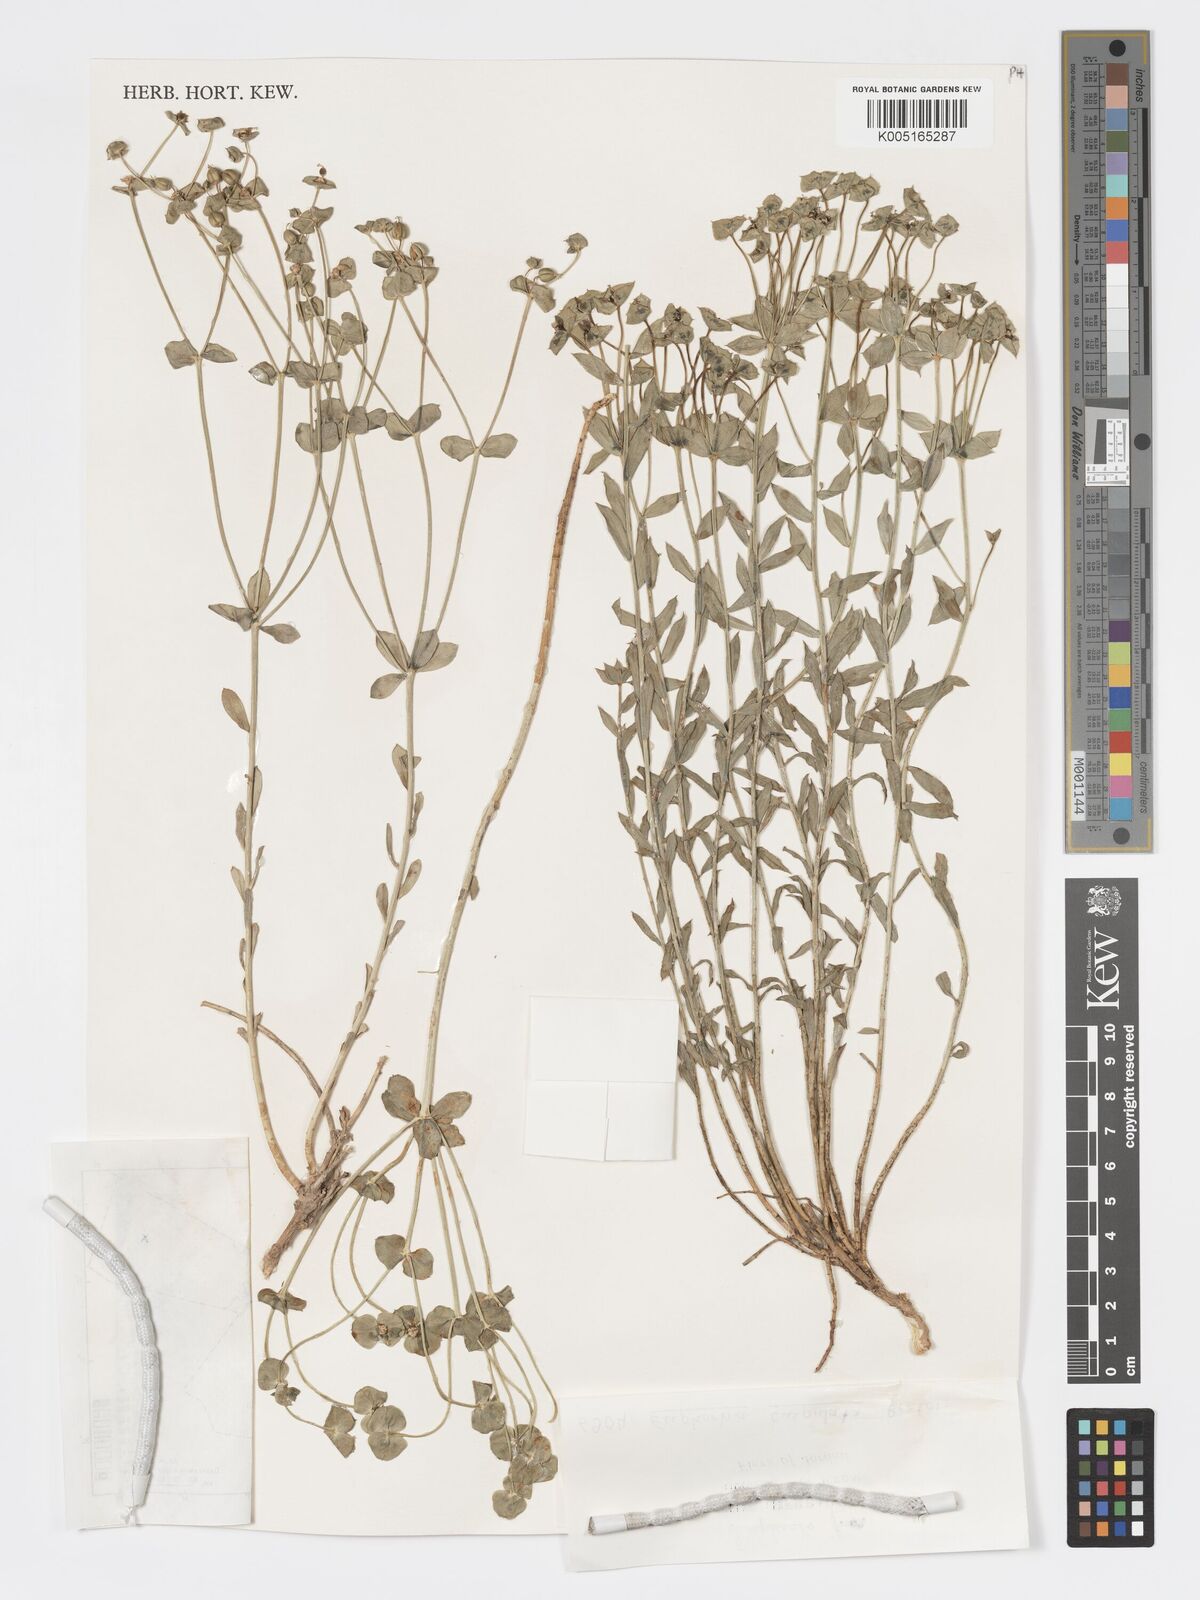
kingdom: Plantae
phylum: Tracheophyta
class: Magnoliopsida
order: Malpighiales
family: Euphorbiaceae
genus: Euphorbia
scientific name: Euphorbia
